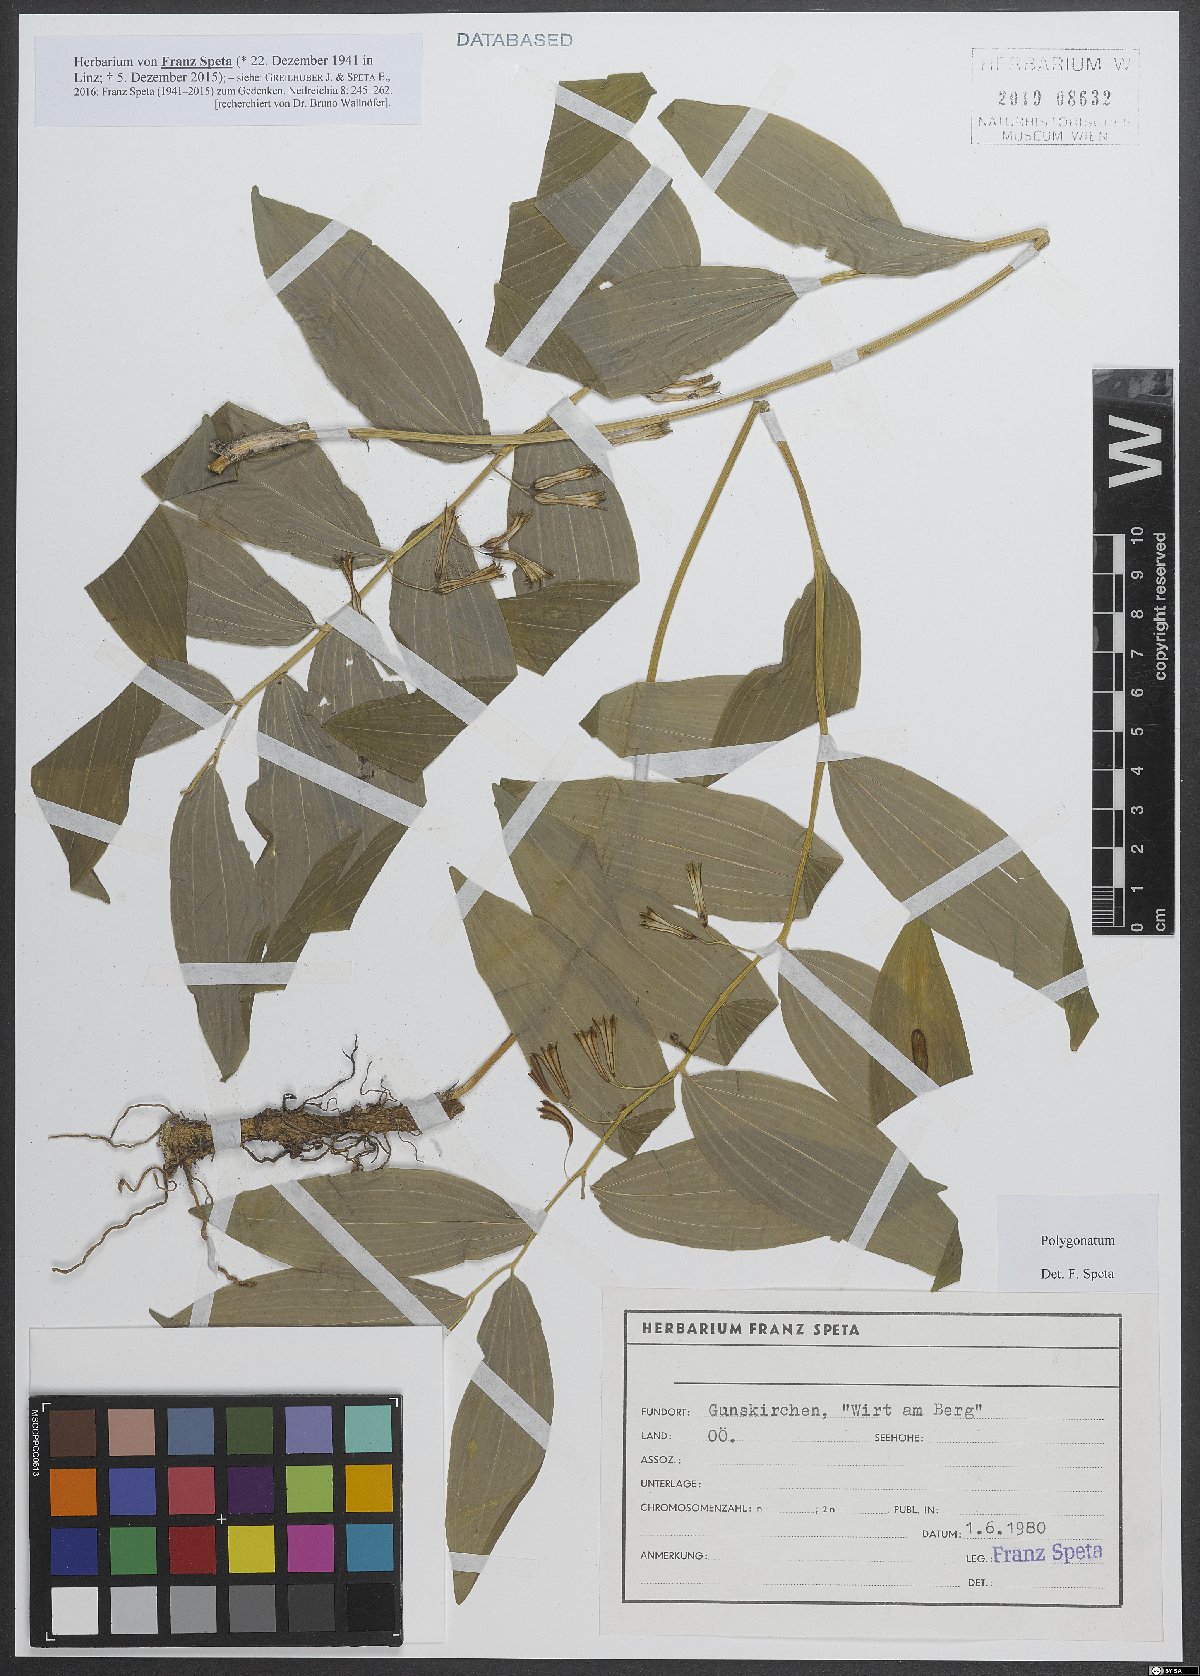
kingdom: Plantae
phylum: Tracheophyta
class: Liliopsida
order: Asparagales
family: Asparagaceae
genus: Polygonatum
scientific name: Polygonatum
